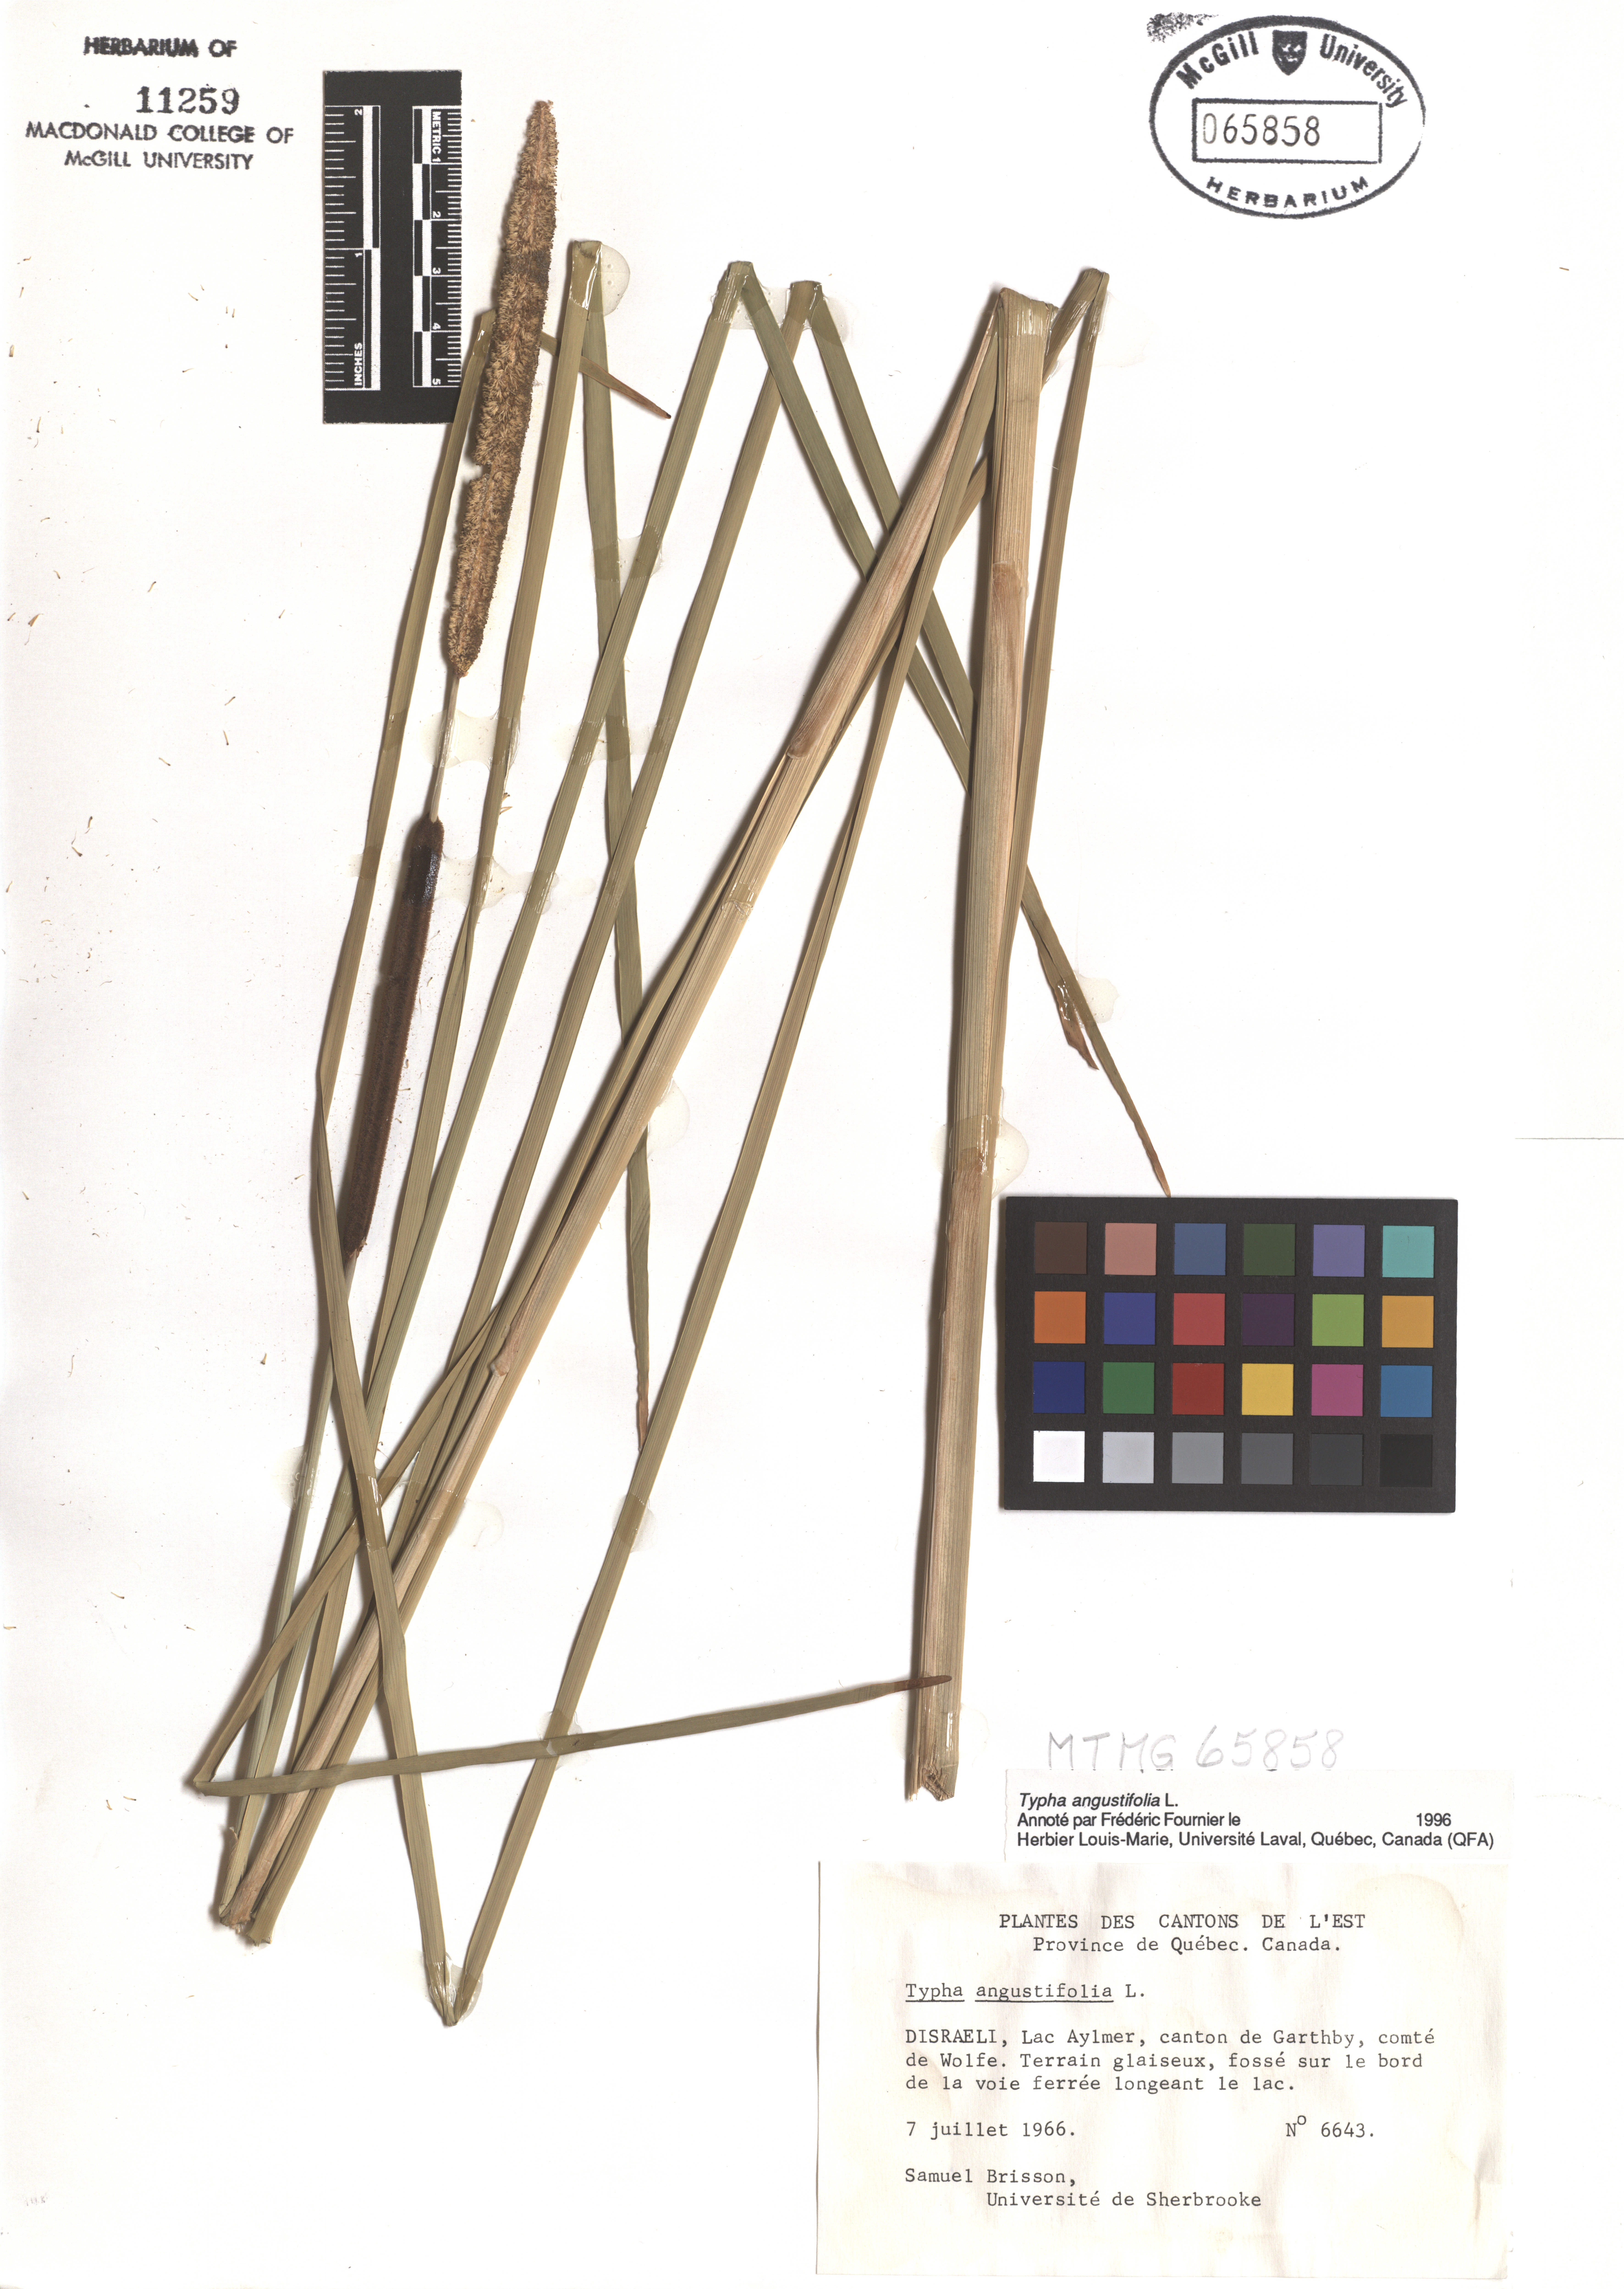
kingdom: Plantae
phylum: Tracheophyta
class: Liliopsida
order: Poales
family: Typhaceae
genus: Typha
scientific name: Typha angustifolia
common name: Lesser bulrush
